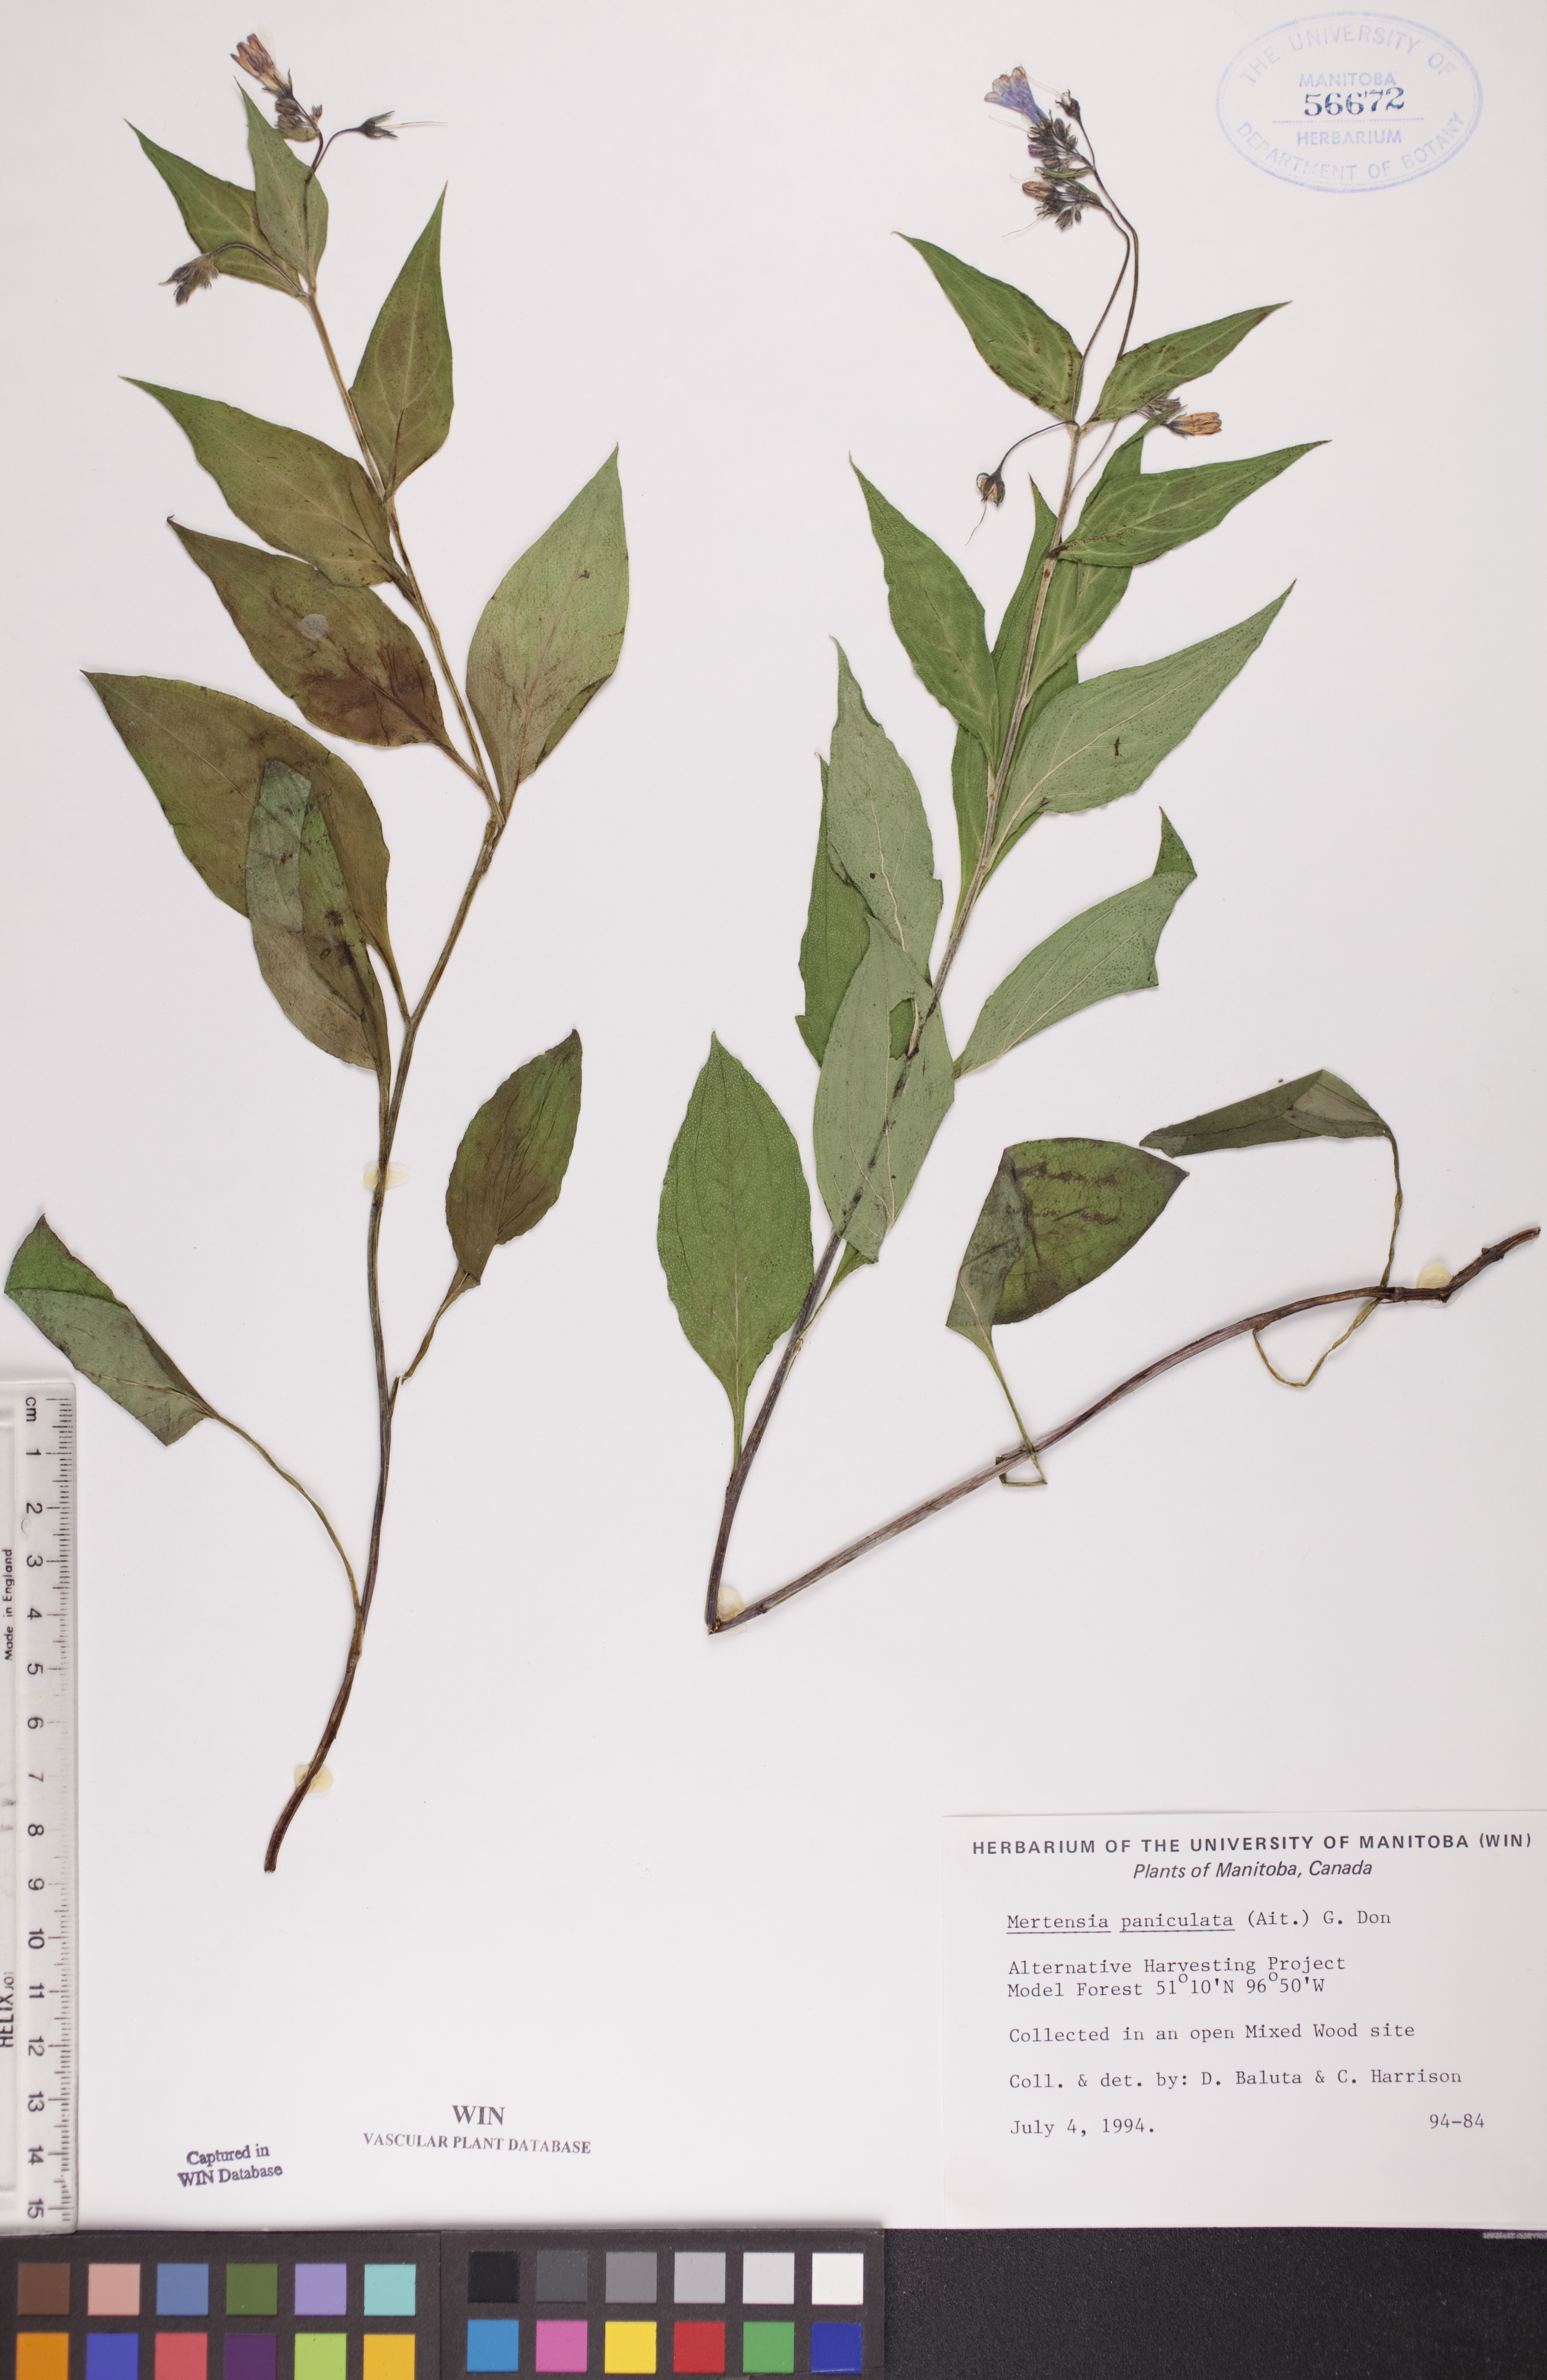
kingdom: Plantae
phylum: Tracheophyta
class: Magnoliopsida
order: Boraginales
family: Boraginaceae
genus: Mertensia
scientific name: Mertensia paniculata
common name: Panicled bluebells
